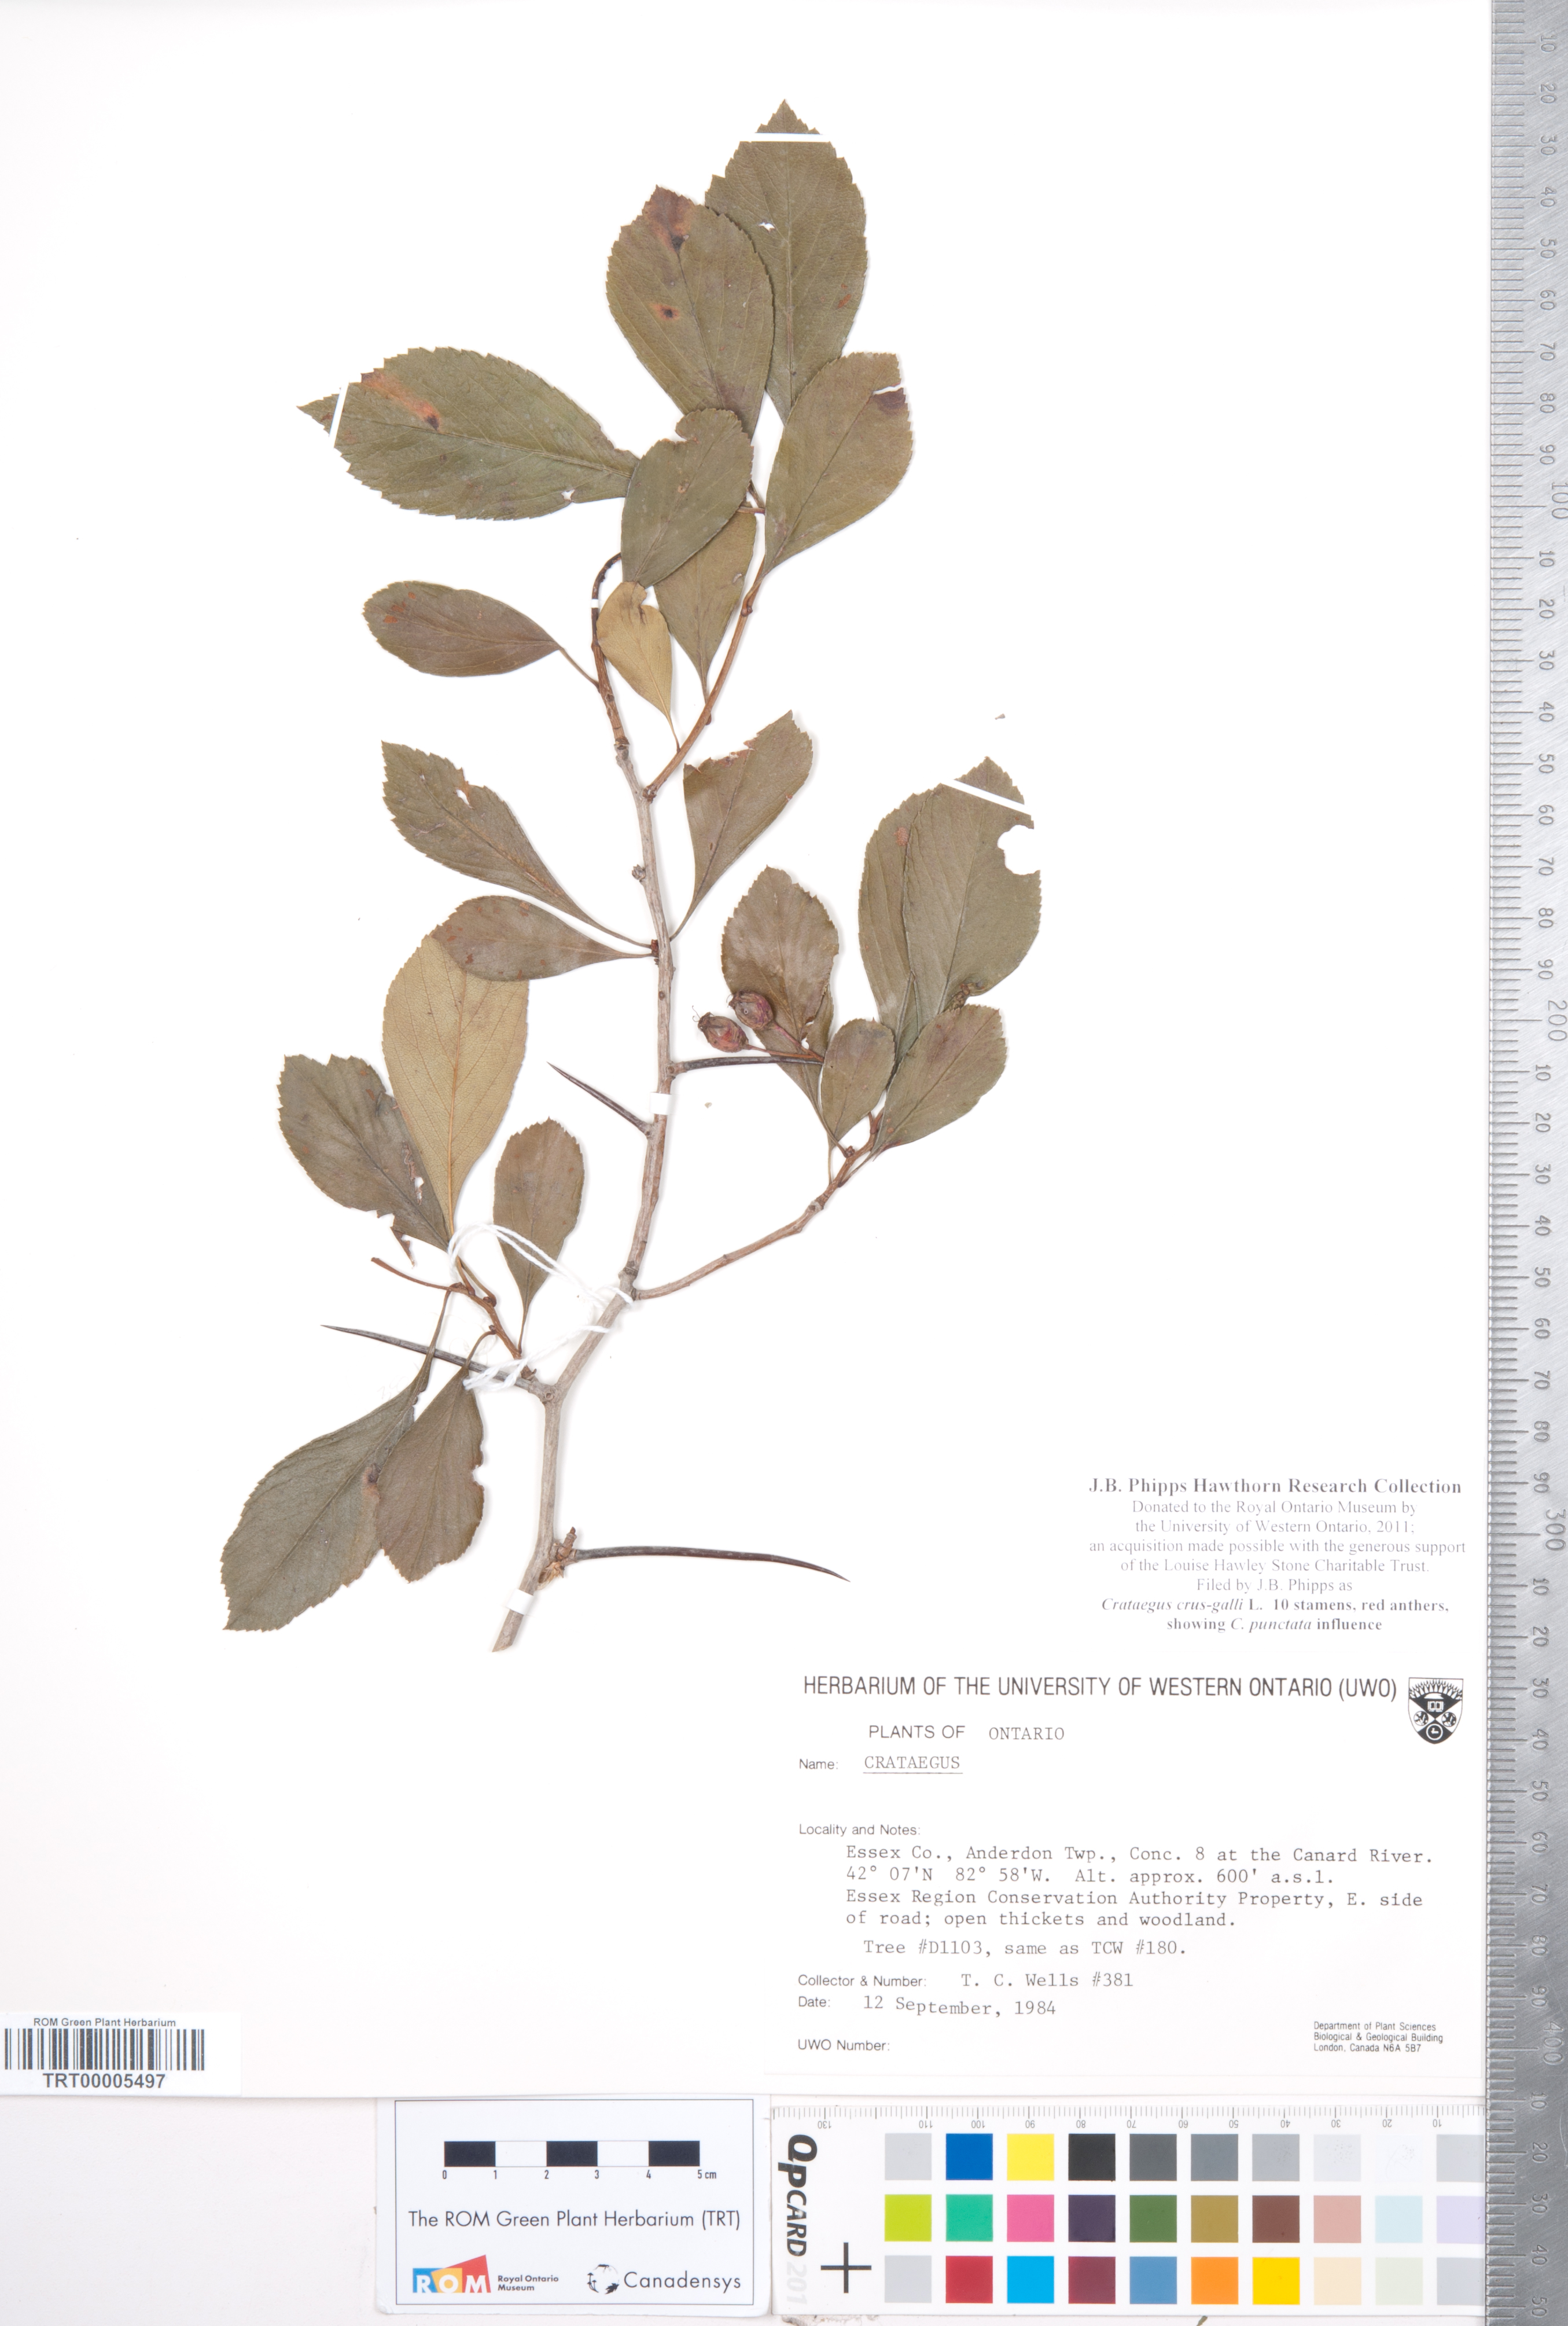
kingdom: Plantae
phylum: Tracheophyta
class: Magnoliopsida
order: Rosales
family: Rosaceae
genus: Crataegus
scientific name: Crataegus crus-galli
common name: Cockspurthorn
